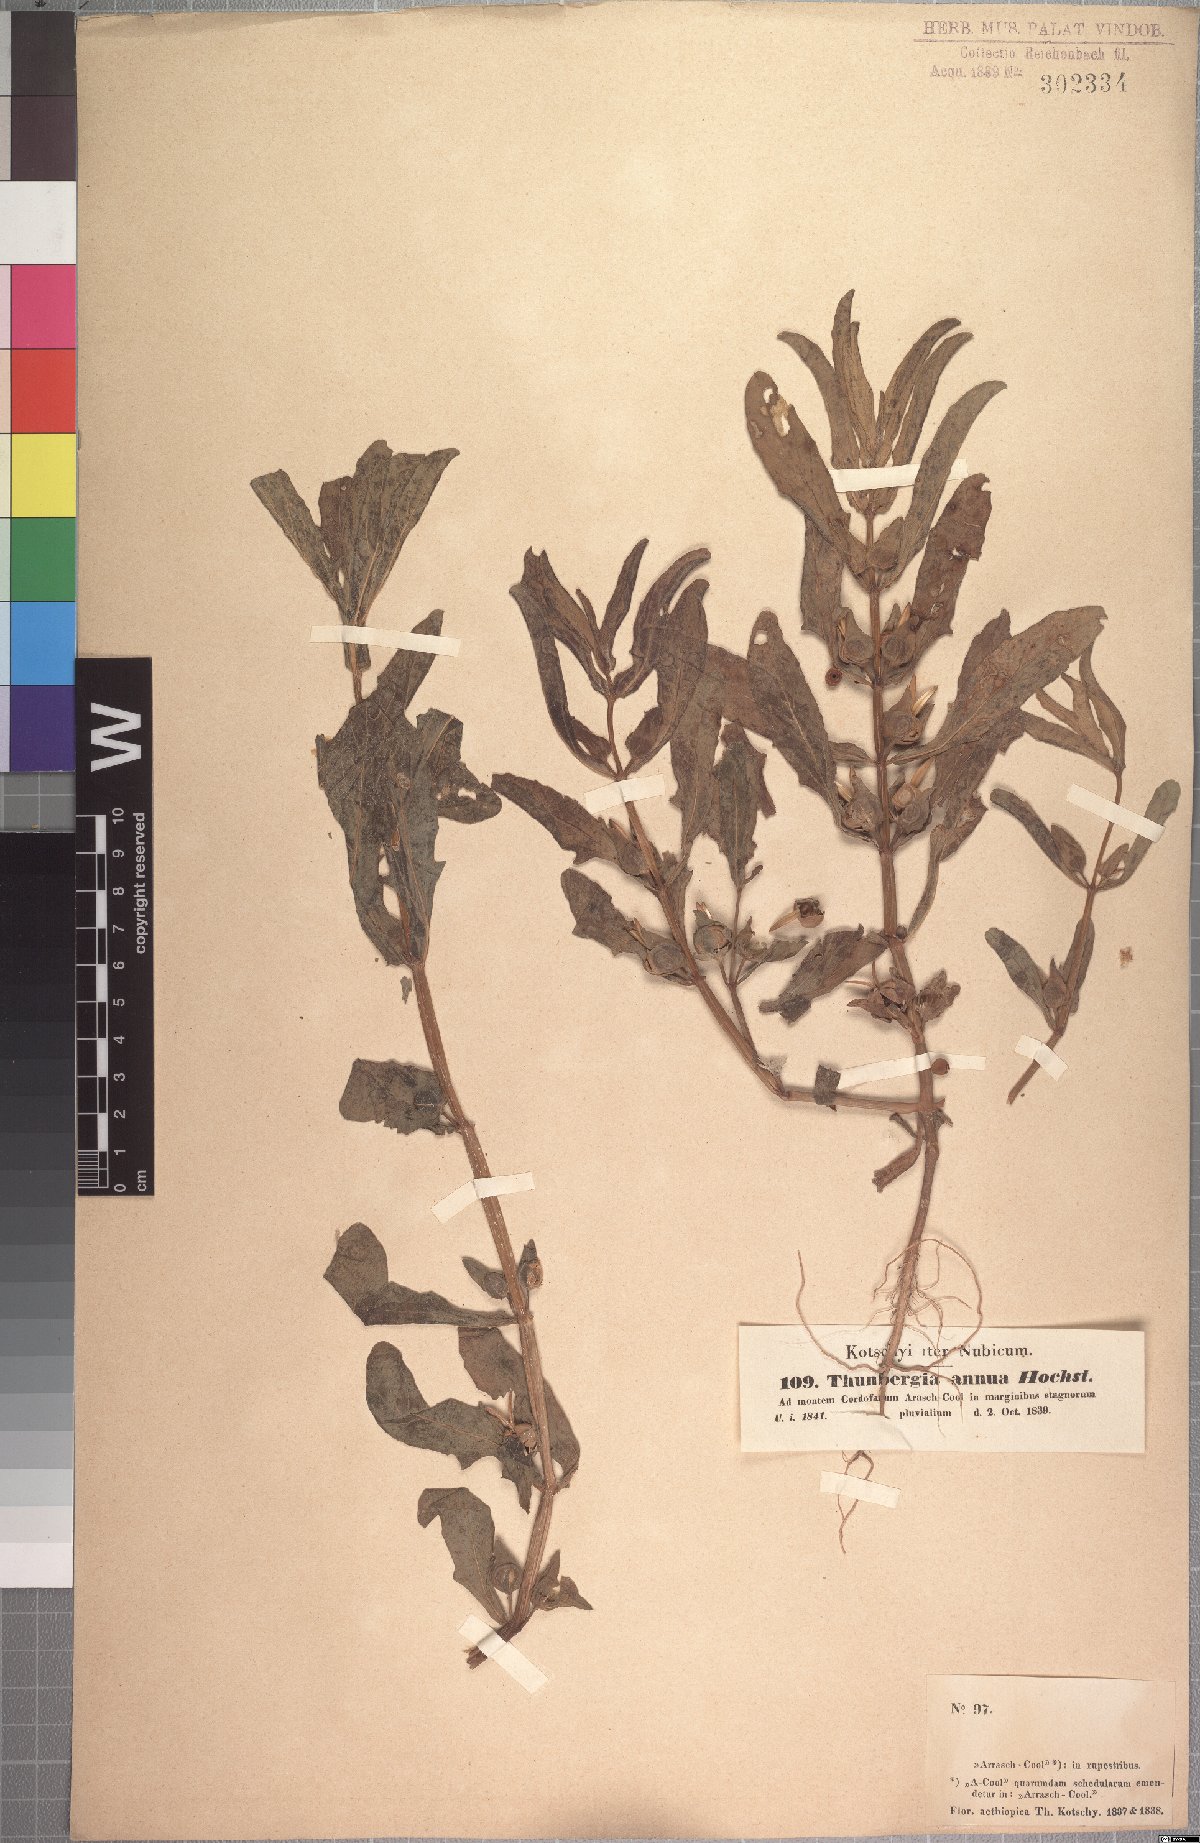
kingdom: Plantae
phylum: Tracheophyta
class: Magnoliopsida
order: Lamiales
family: Acanthaceae
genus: Thunbergia
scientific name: Thunbergia annua
